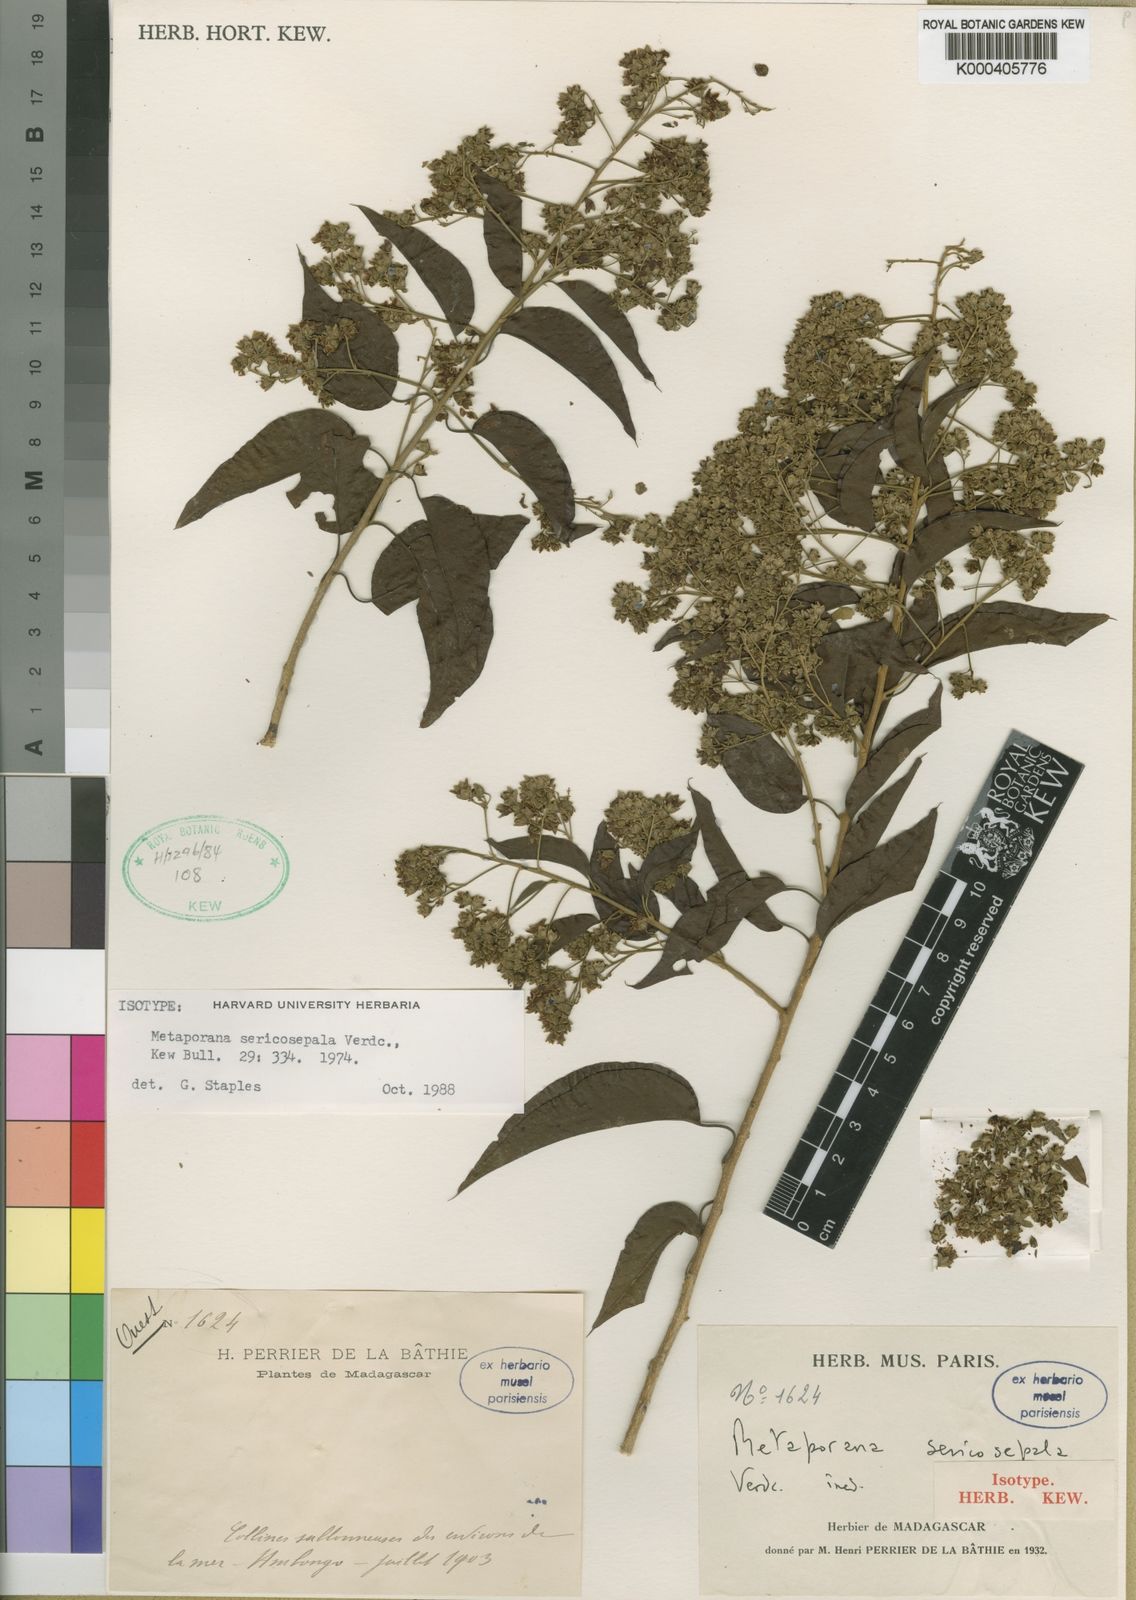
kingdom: Plantae
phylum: Tracheophyta
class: Magnoliopsida
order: Solanales
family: Convolvulaceae
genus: Metaporana
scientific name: Metaporana sericosepala
